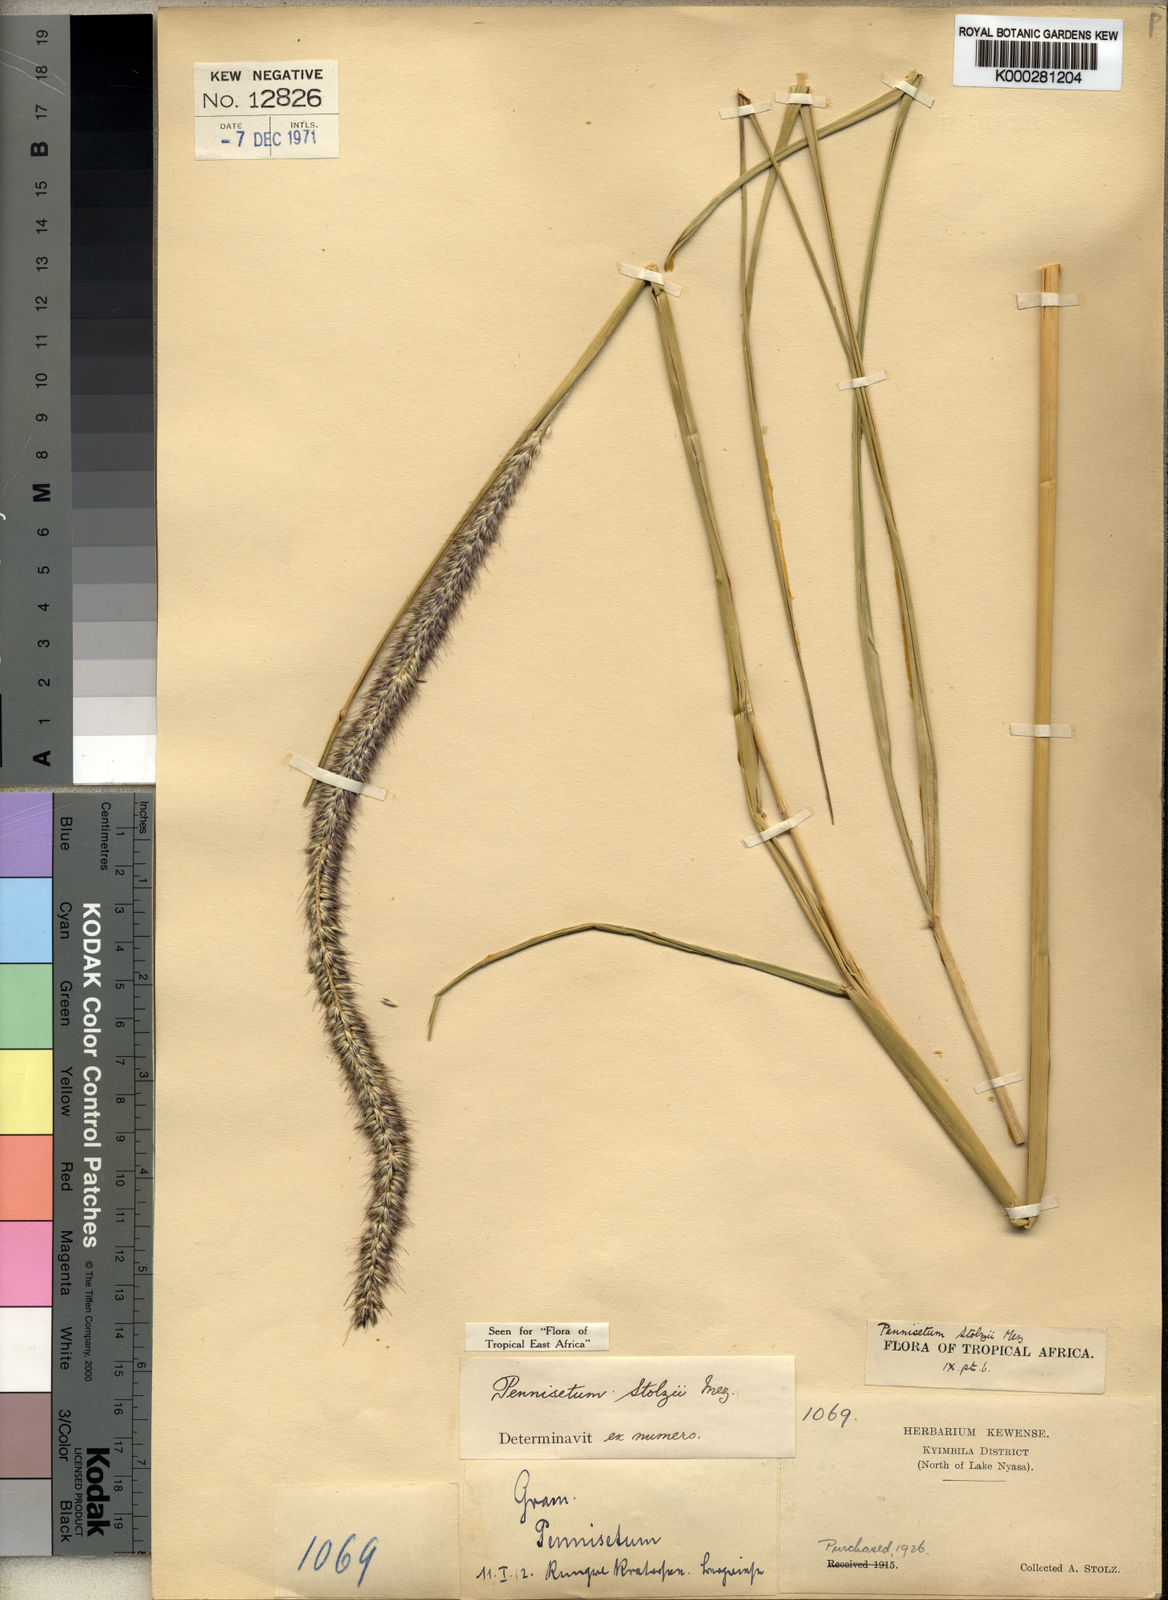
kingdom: Plantae
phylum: Tracheophyta
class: Liliopsida
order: Poales
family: Poaceae
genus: Cenchrus
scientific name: Cenchrus caudatus
